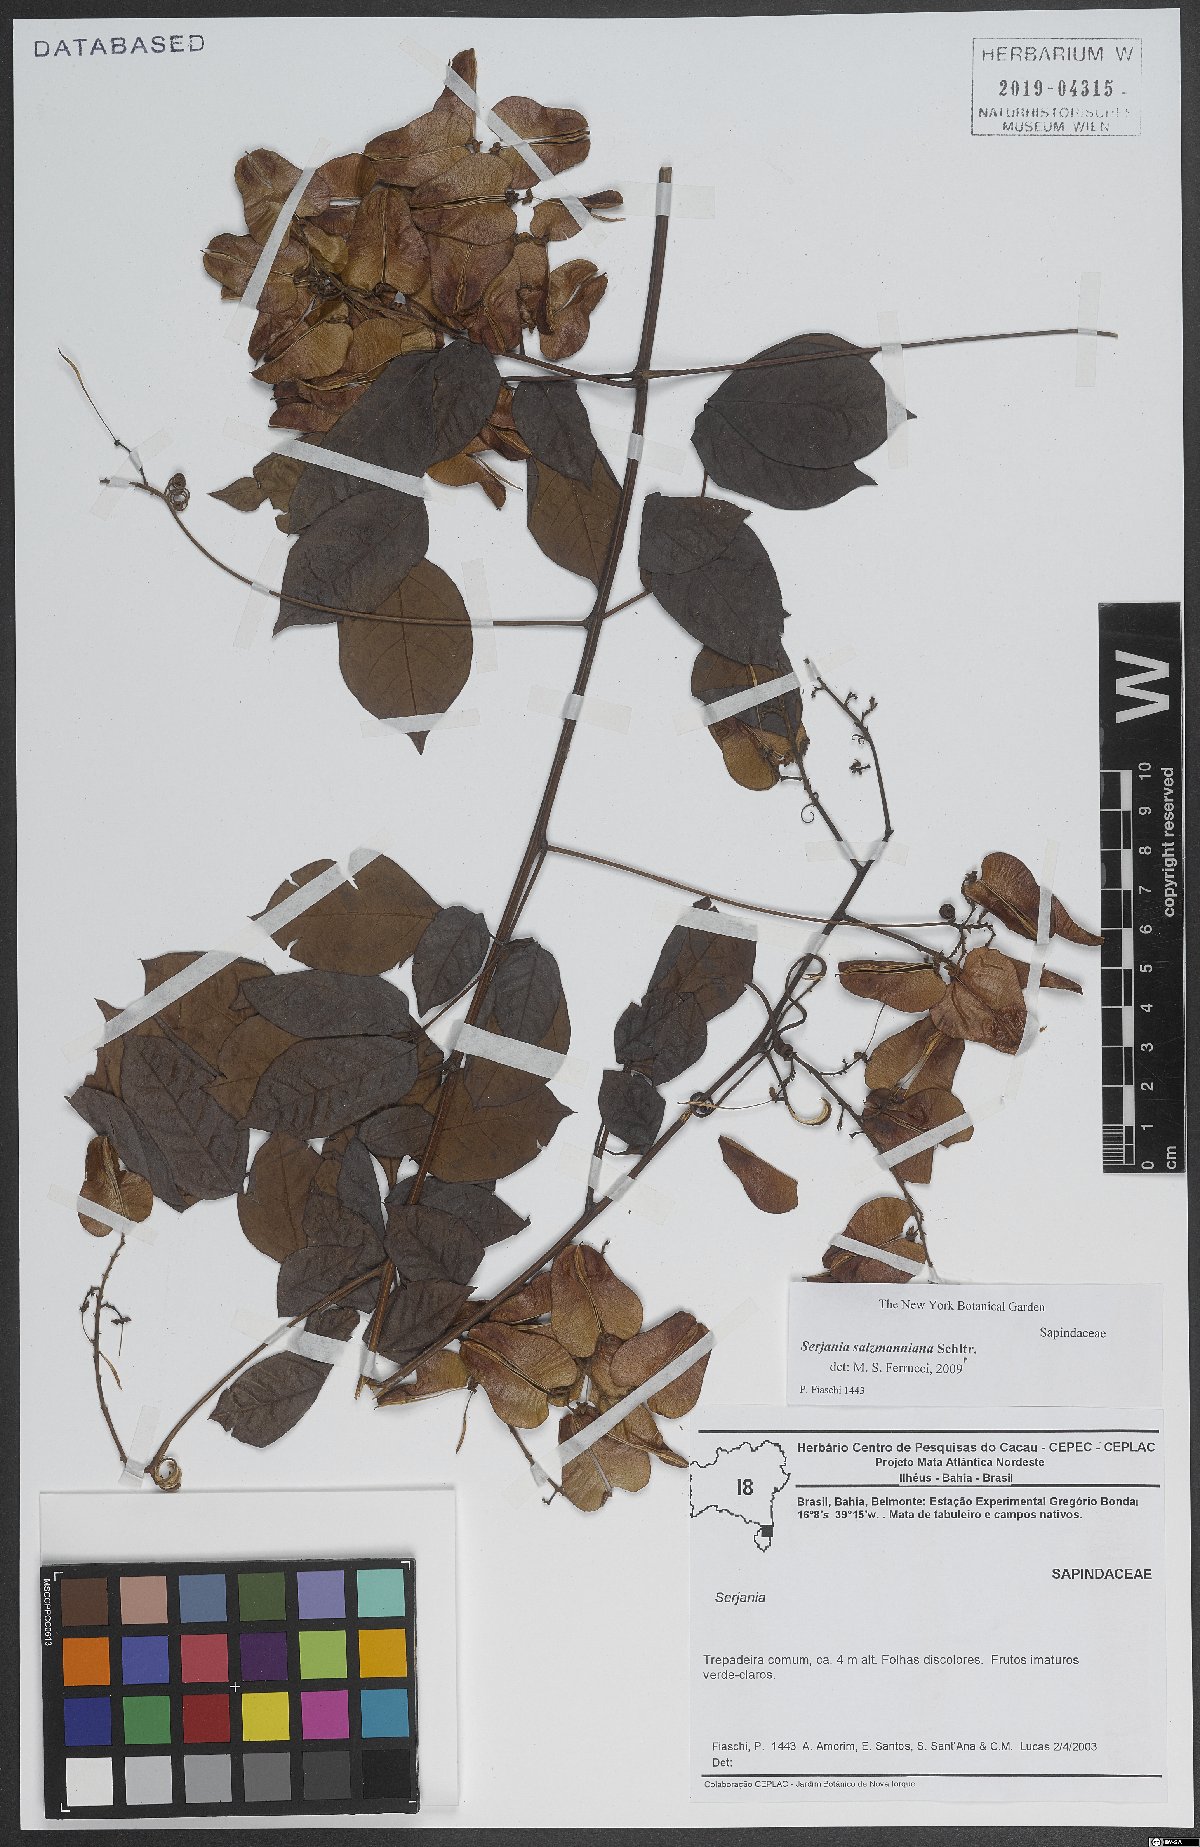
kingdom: Plantae
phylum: Tracheophyta
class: Magnoliopsida
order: Sapindales
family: Sapindaceae
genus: Serjania
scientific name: Serjania salzmanniana
